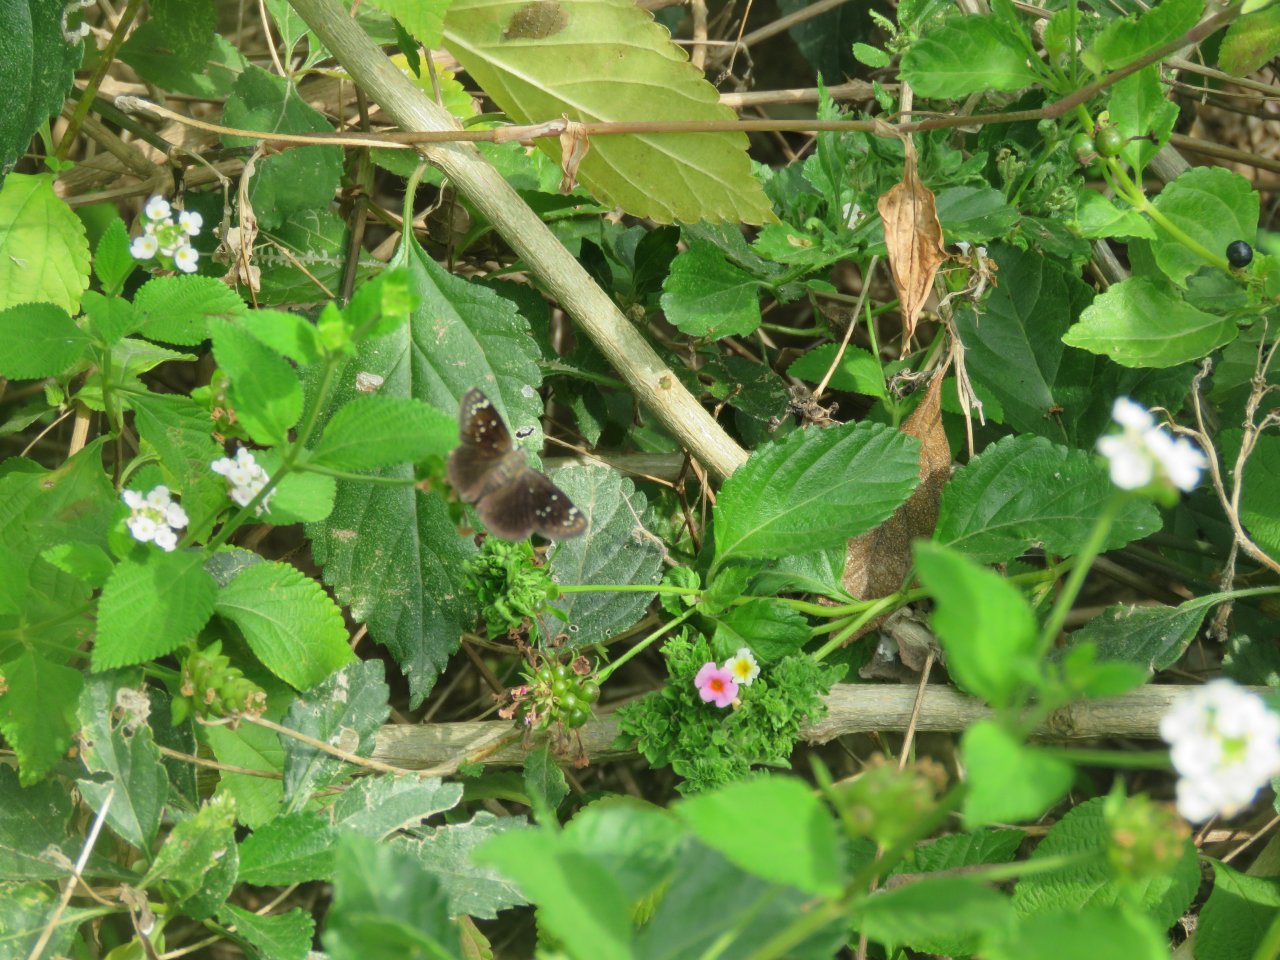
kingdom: Animalia
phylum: Arthropoda
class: Insecta
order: Lepidoptera
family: Hesperiidae
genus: Pholisora
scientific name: Pholisora catullus
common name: Common Sootywing
